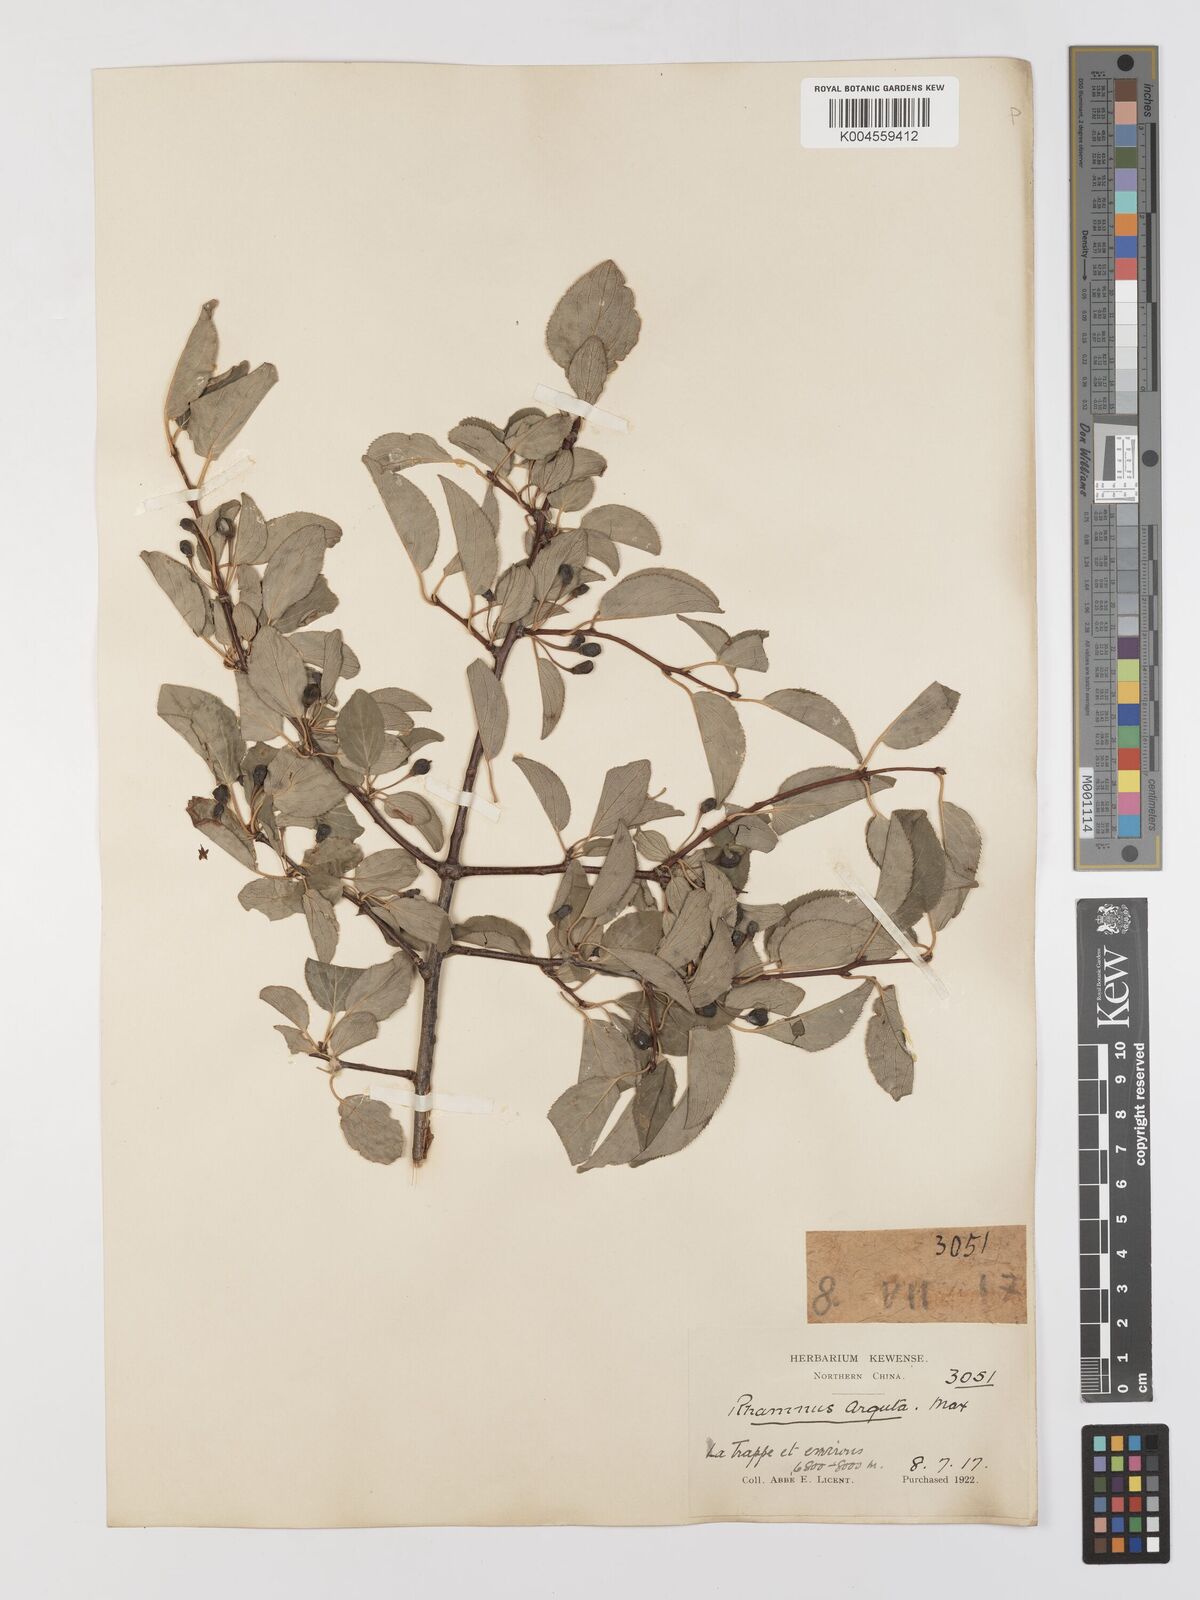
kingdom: Plantae
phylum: Tracheophyta
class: Magnoliopsida
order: Rosales
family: Rhamnaceae
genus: Rhamnus
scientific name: Rhamnus arguta
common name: Sharp-tooth buckthorn
